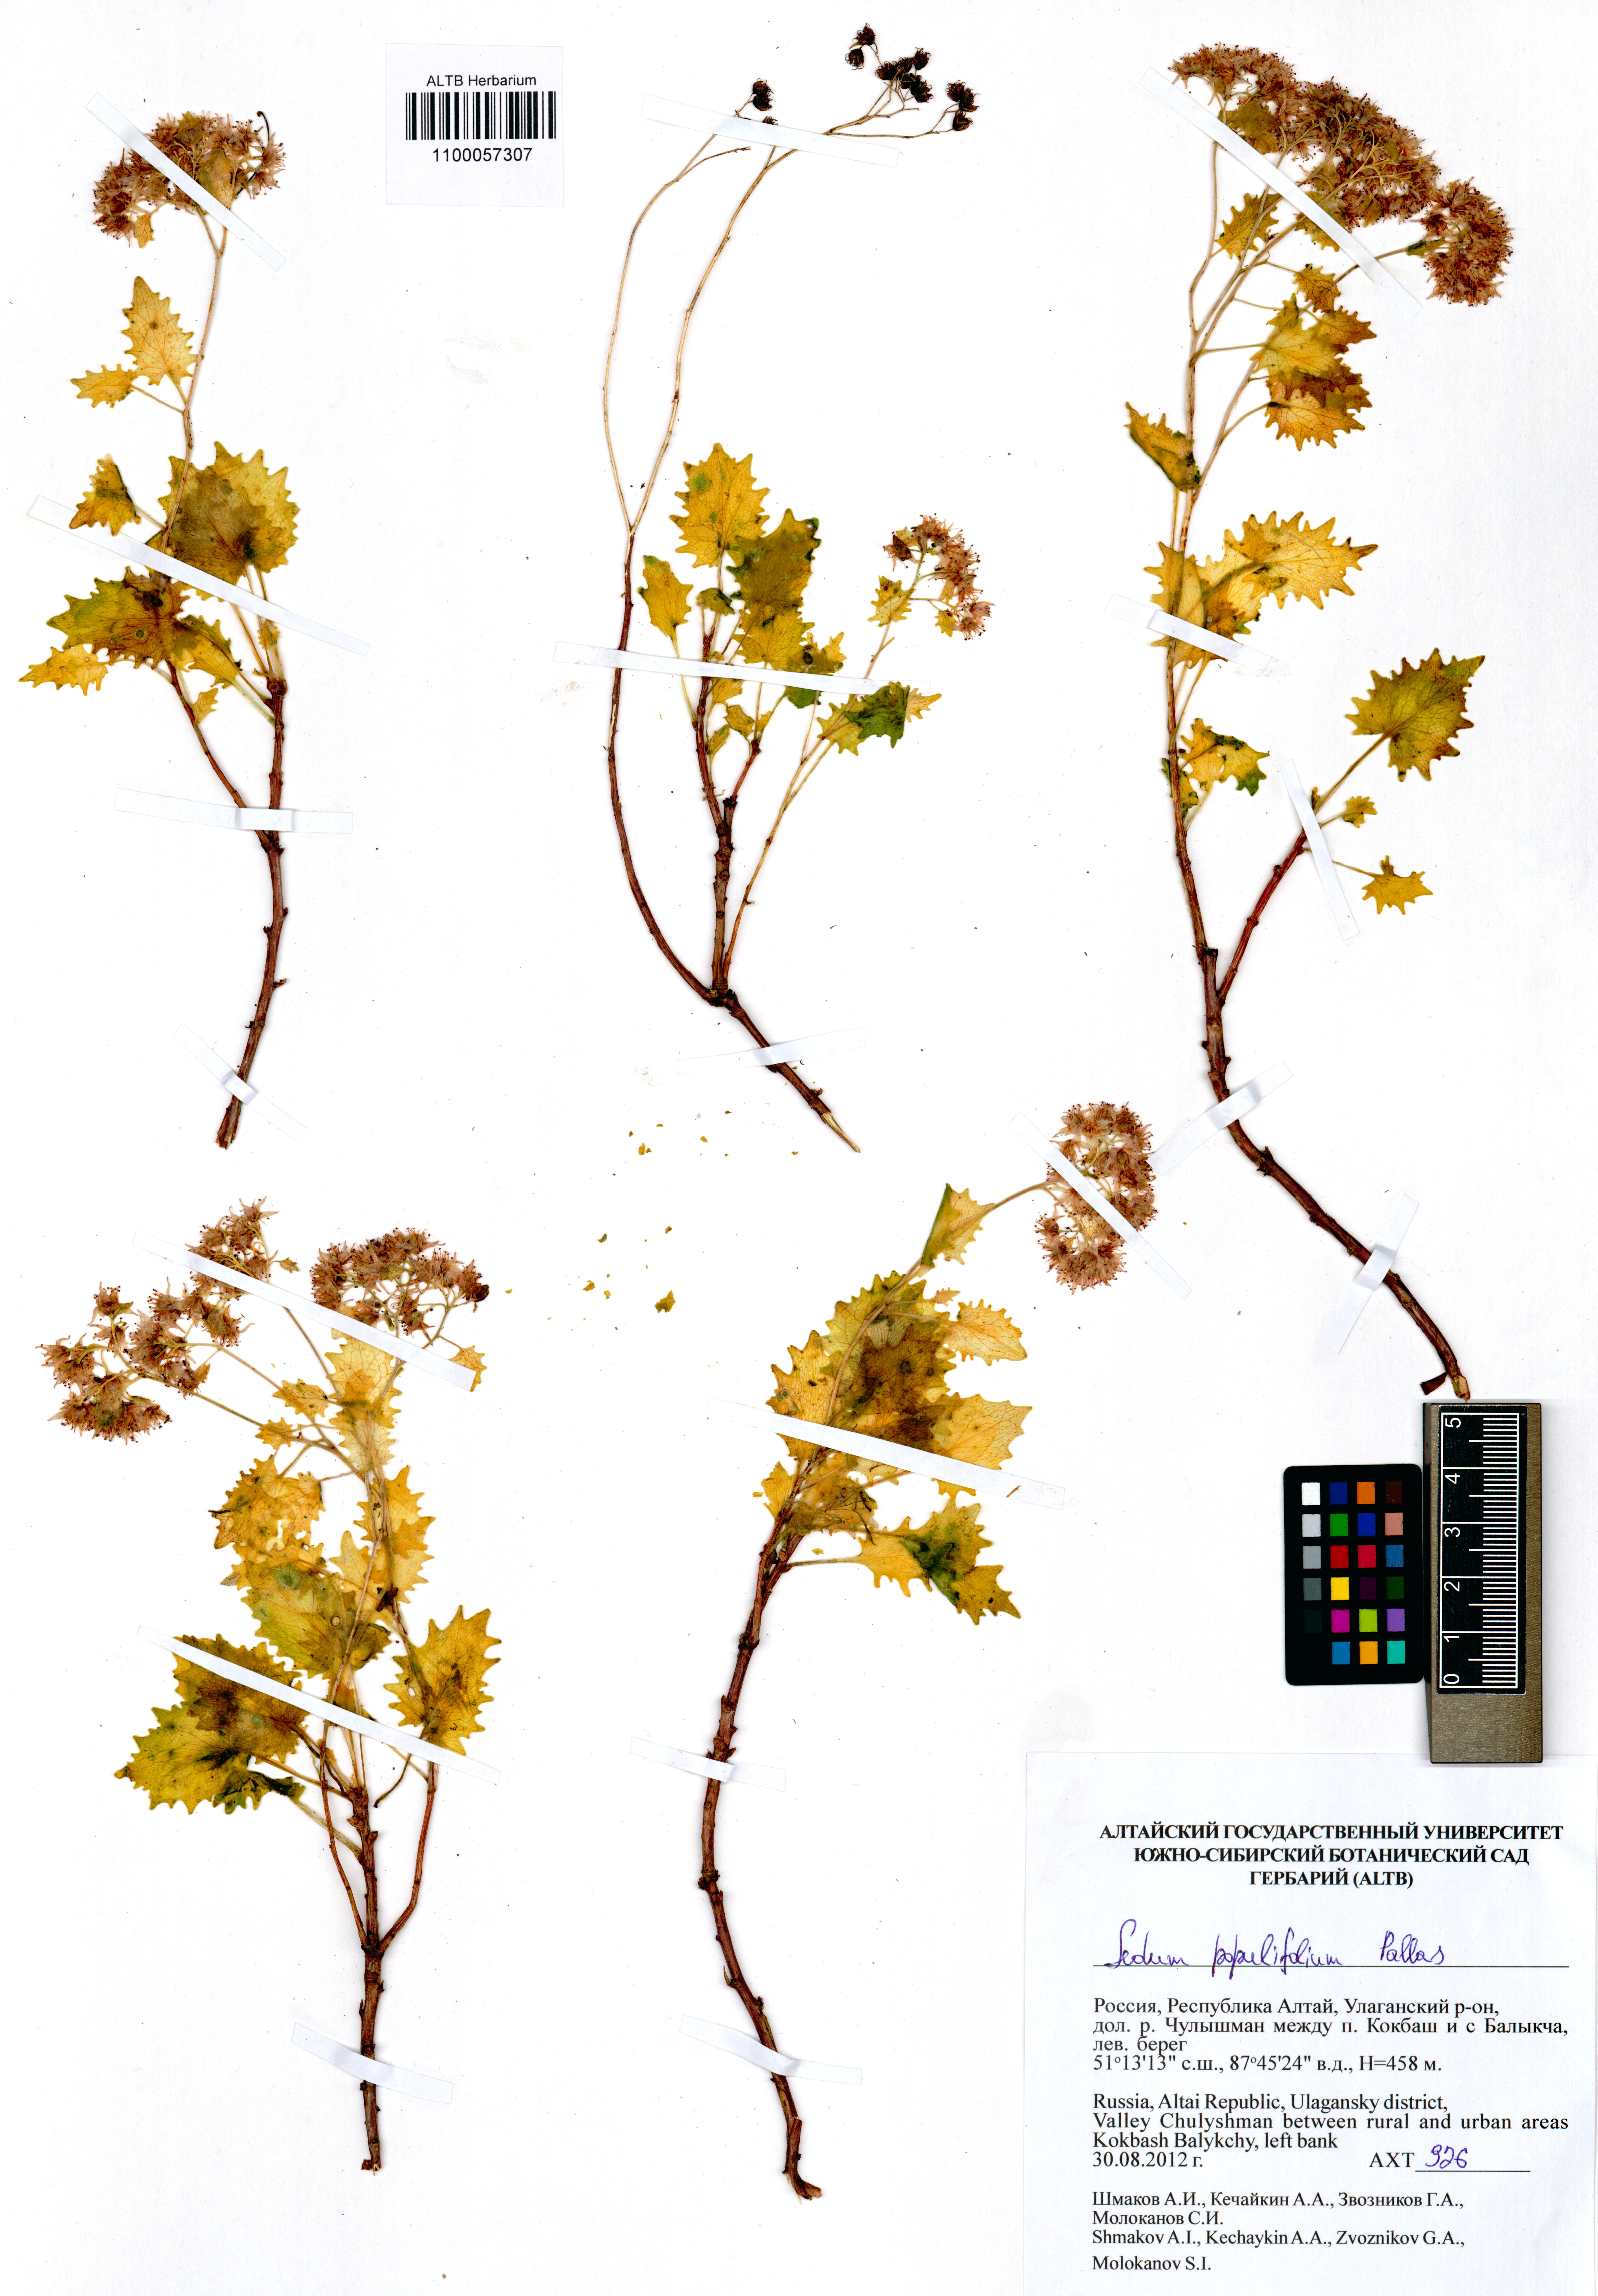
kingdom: Plantae
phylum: Tracheophyta
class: Magnoliopsida
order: Saxifragales
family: Crassulaceae
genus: Hylotelephium
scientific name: Hylotelephium populifolium
